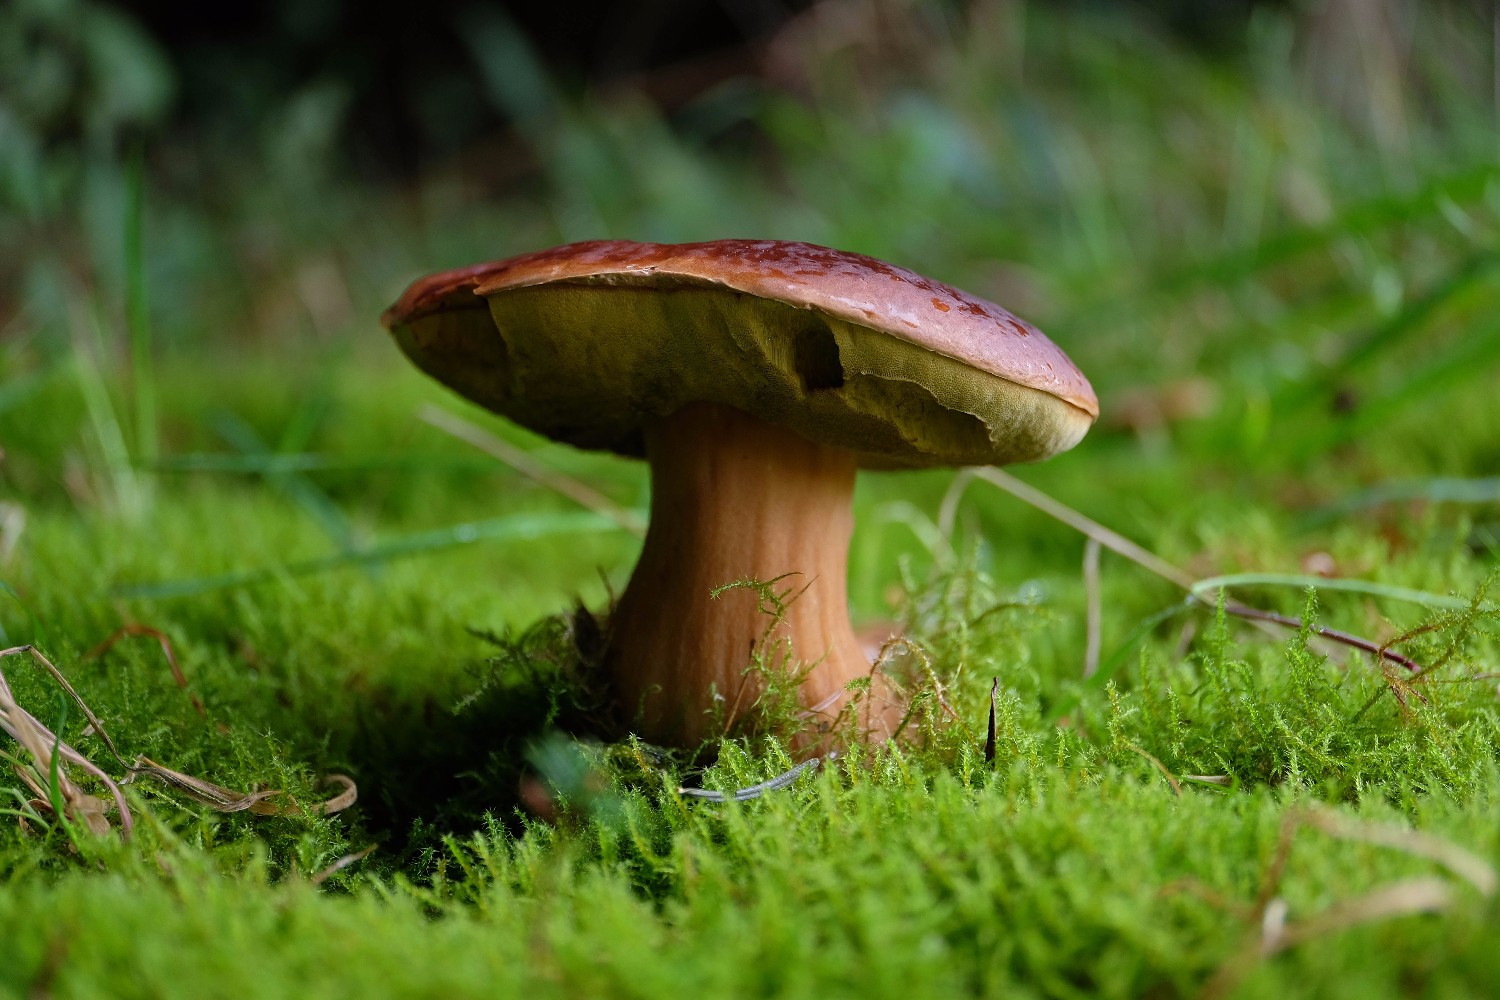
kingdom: Fungi
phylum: Basidiomycota
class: Agaricomycetes
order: Boletales
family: Boletaceae
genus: Boletus
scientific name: Boletus edulis
